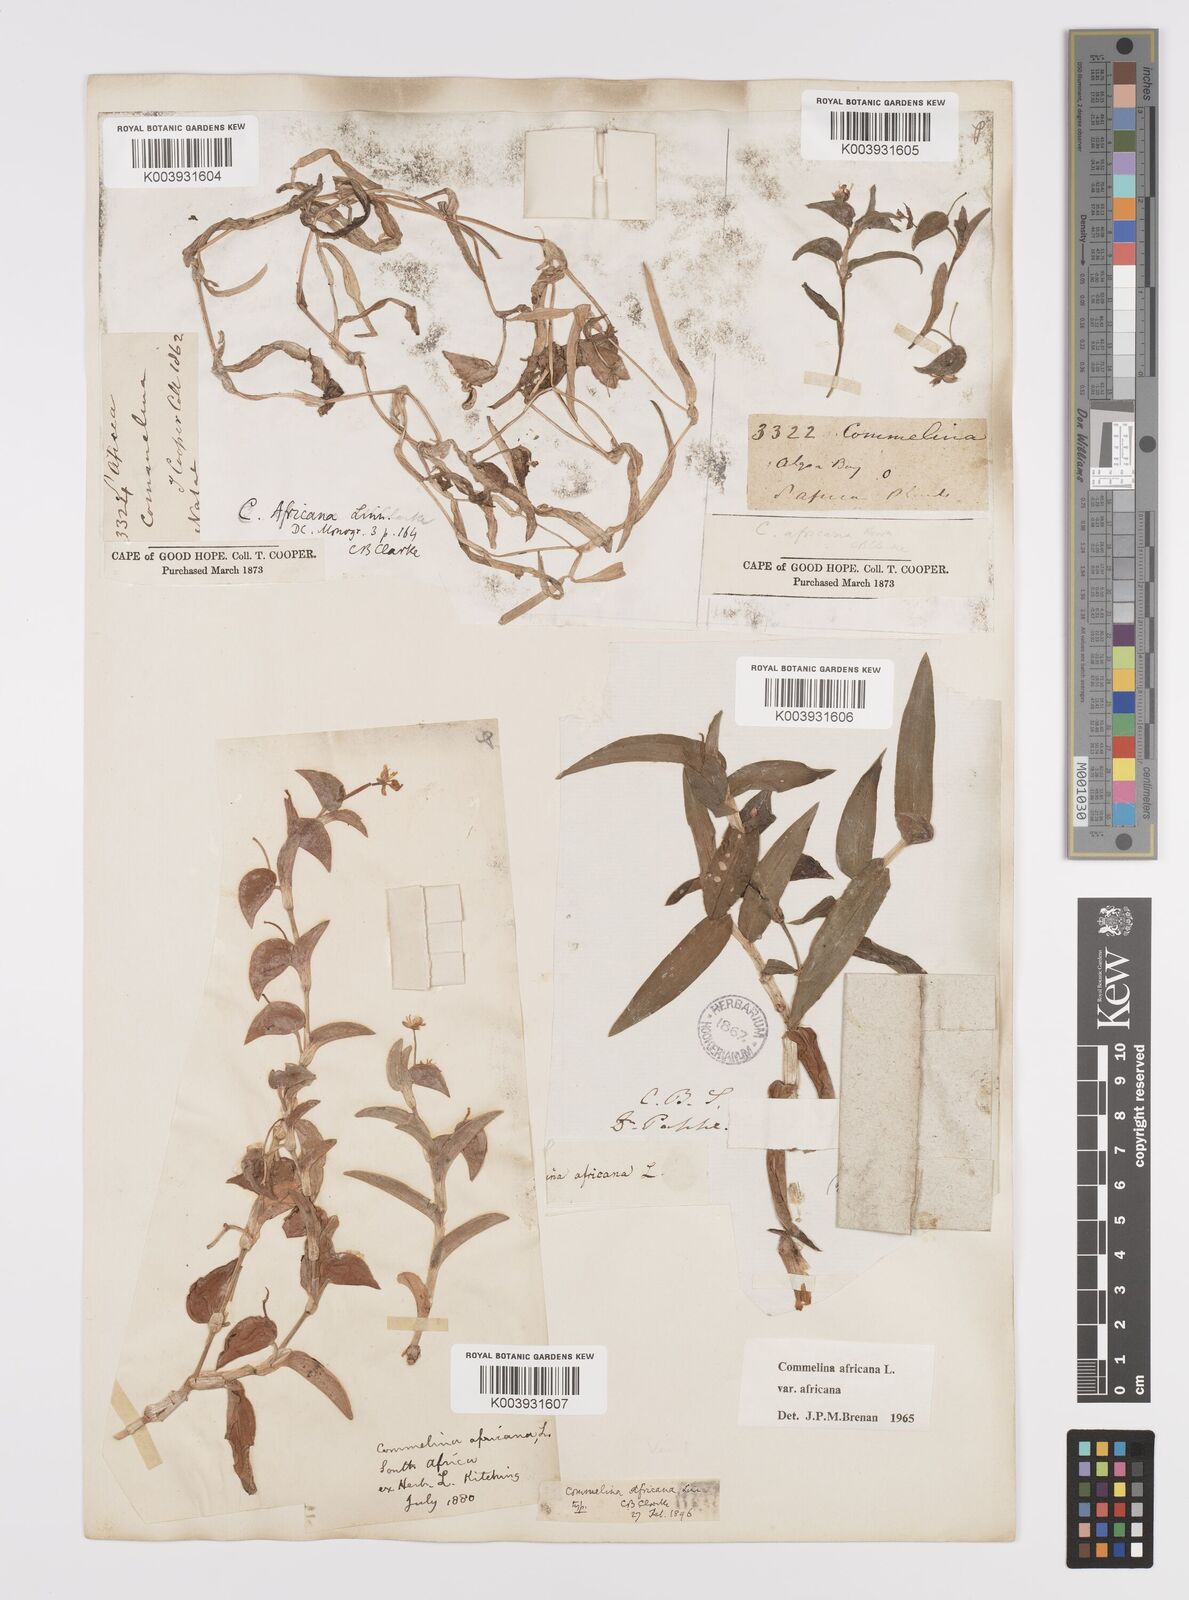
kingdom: Plantae
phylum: Tracheophyta
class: Liliopsida
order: Commelinales
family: Commelinaceae
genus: Commelina
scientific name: Commelina africana
